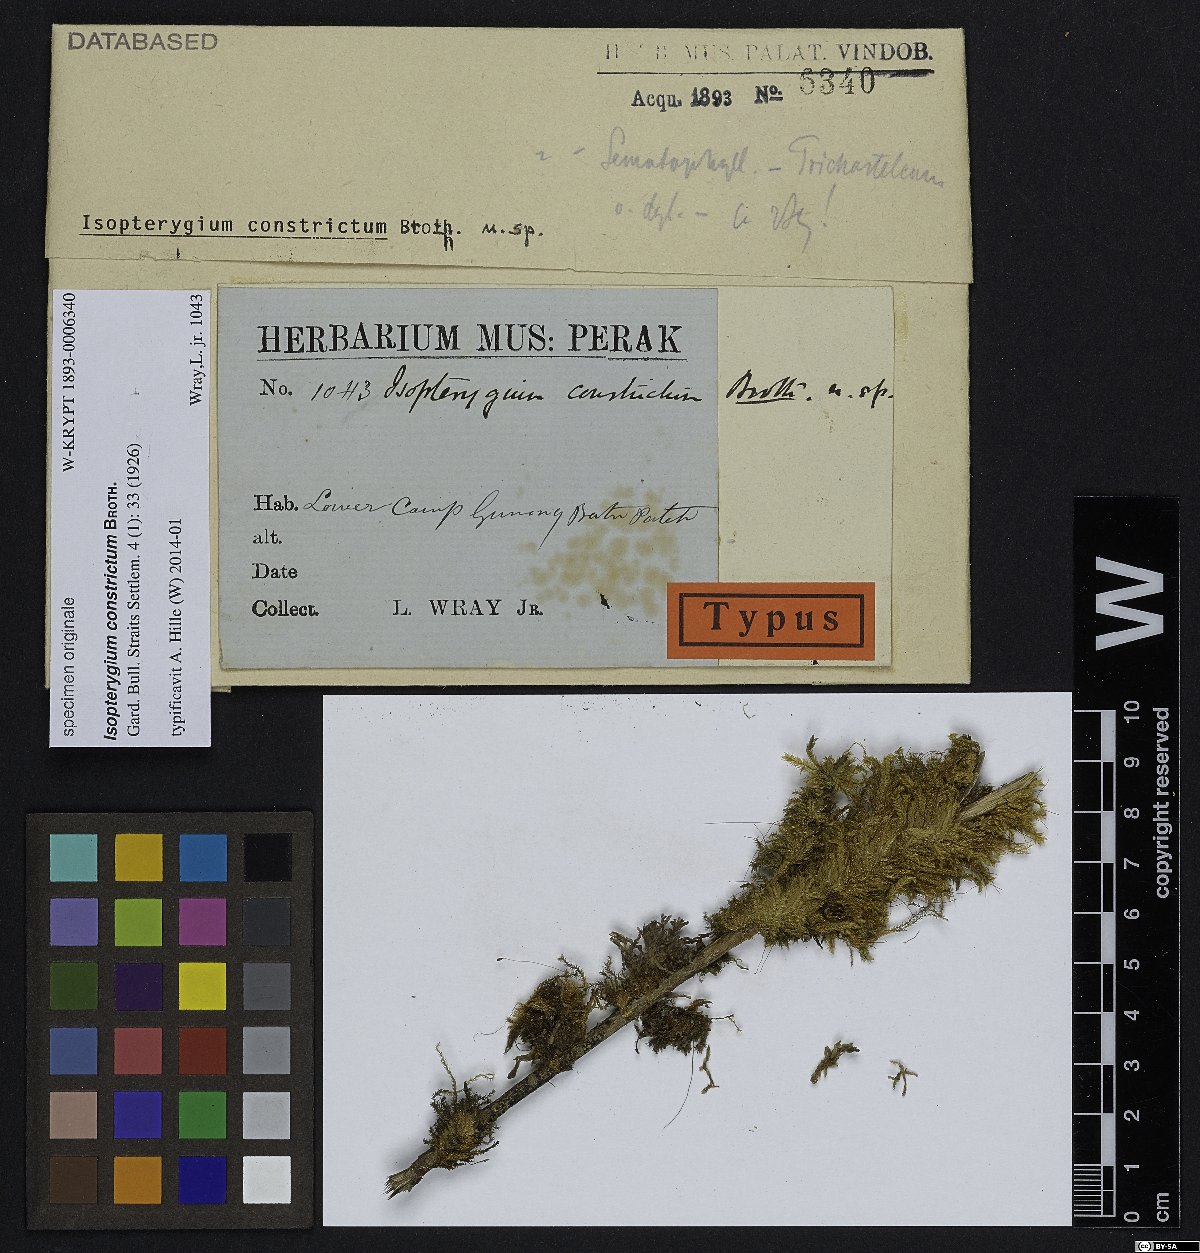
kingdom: Plantae
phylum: Bryophyta
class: Bryopsida
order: Hypnales
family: Hypnaceae
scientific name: Hypnaceae
